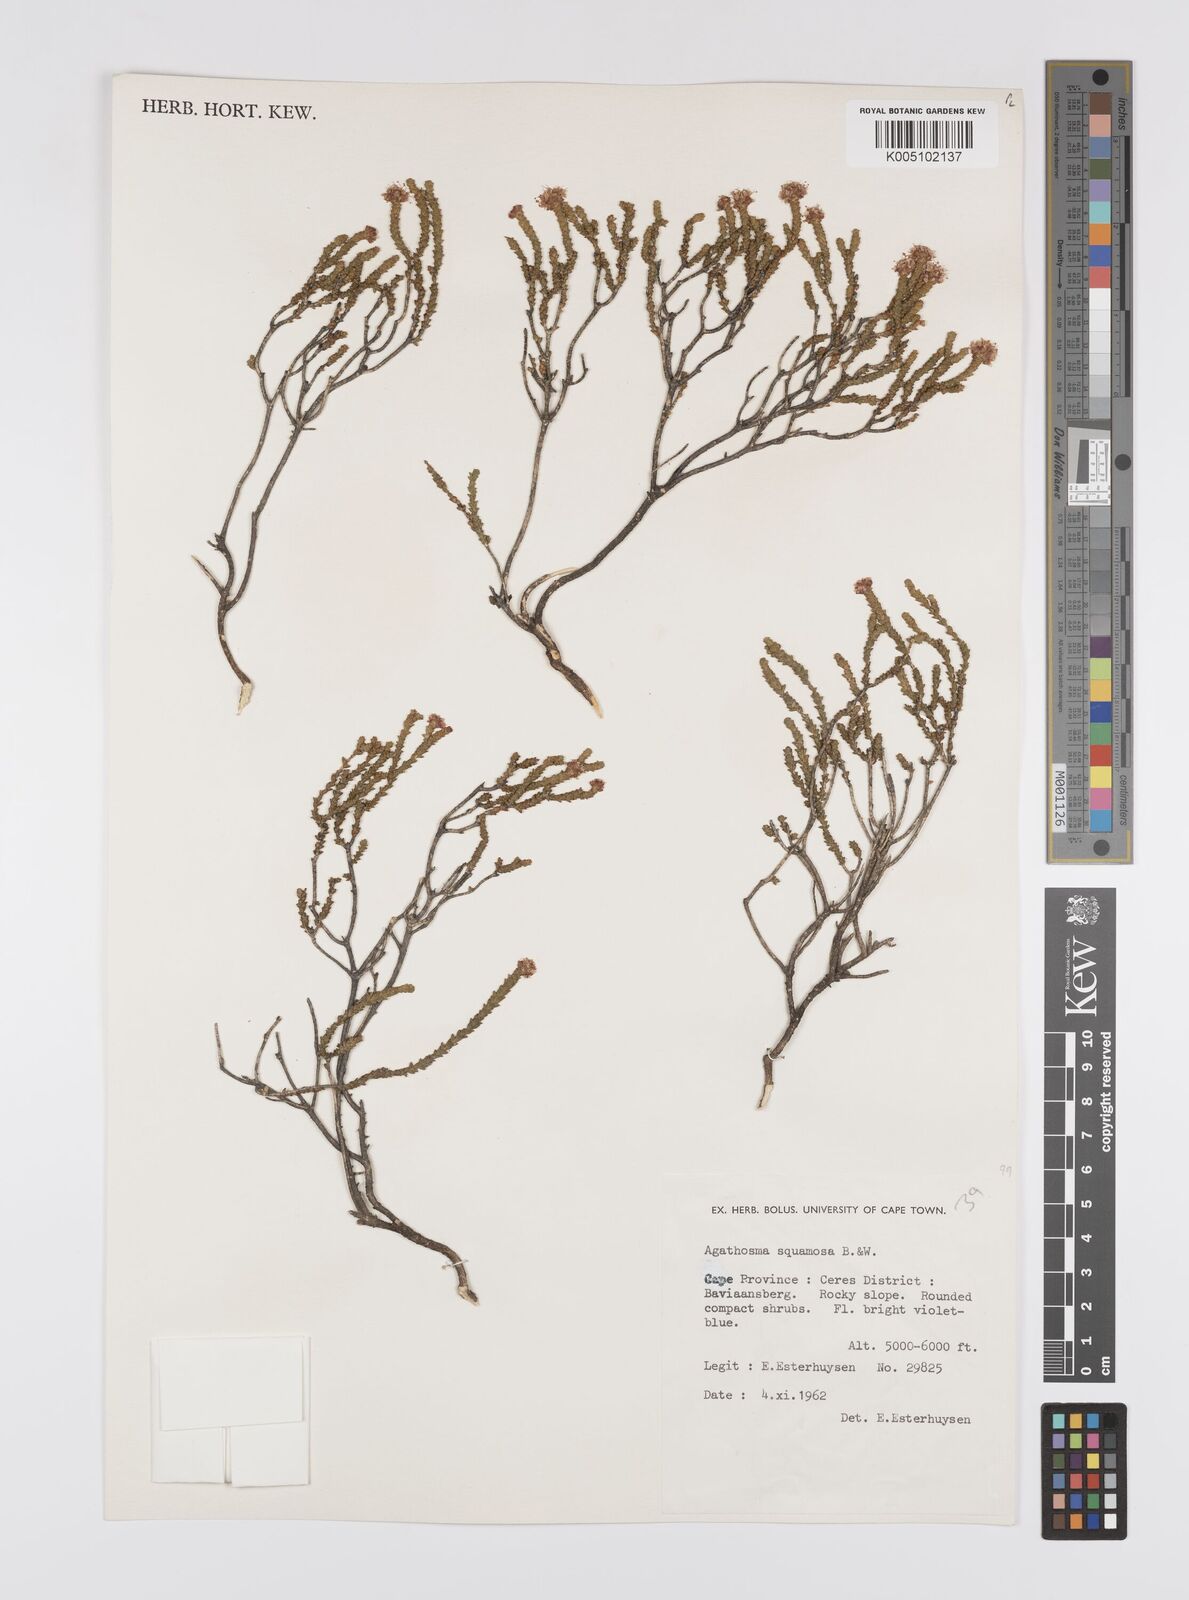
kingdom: Plantae
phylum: Tracheophyta
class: Magnoliopsida
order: Sapindales
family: Rutaceae
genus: Agathosma
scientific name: Agathosma squamosa
